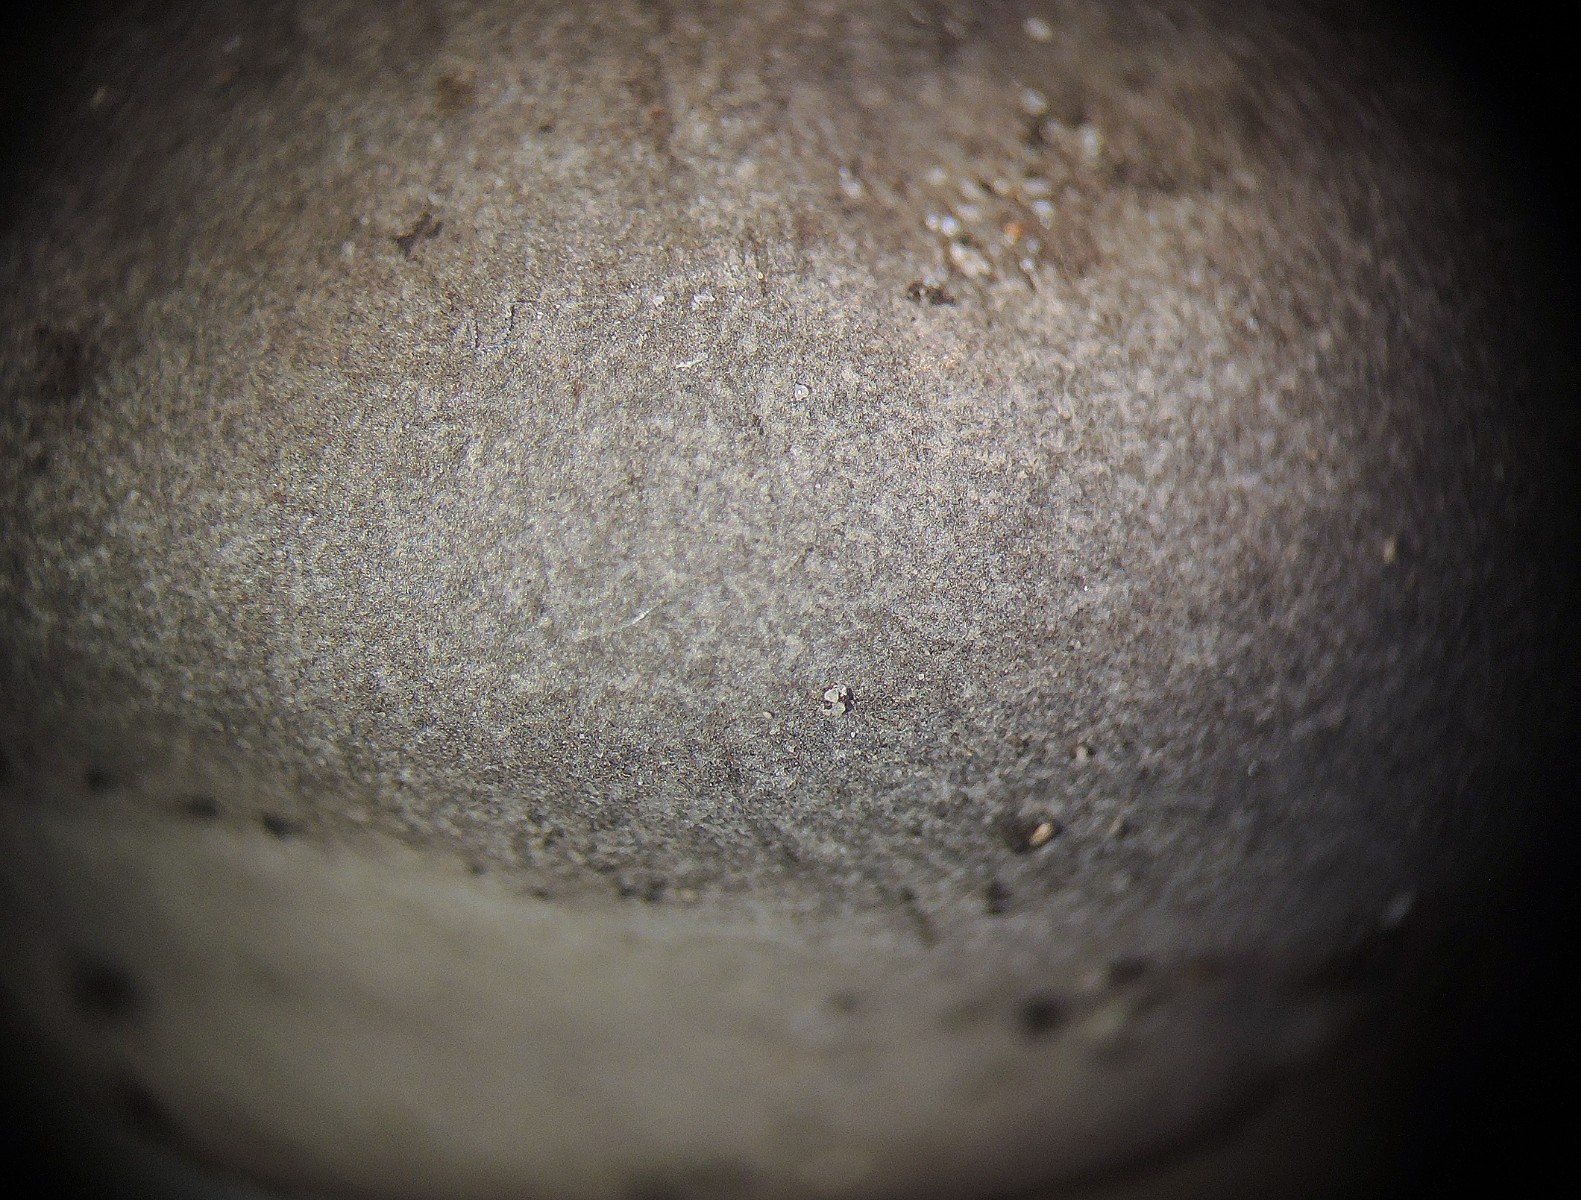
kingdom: Fungi
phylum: Basidiomycota
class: Agaricomycetes
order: Geastrales
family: Geastraceae
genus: Geastrum
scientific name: Geastrum coronatum
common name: mørk stjernebold
